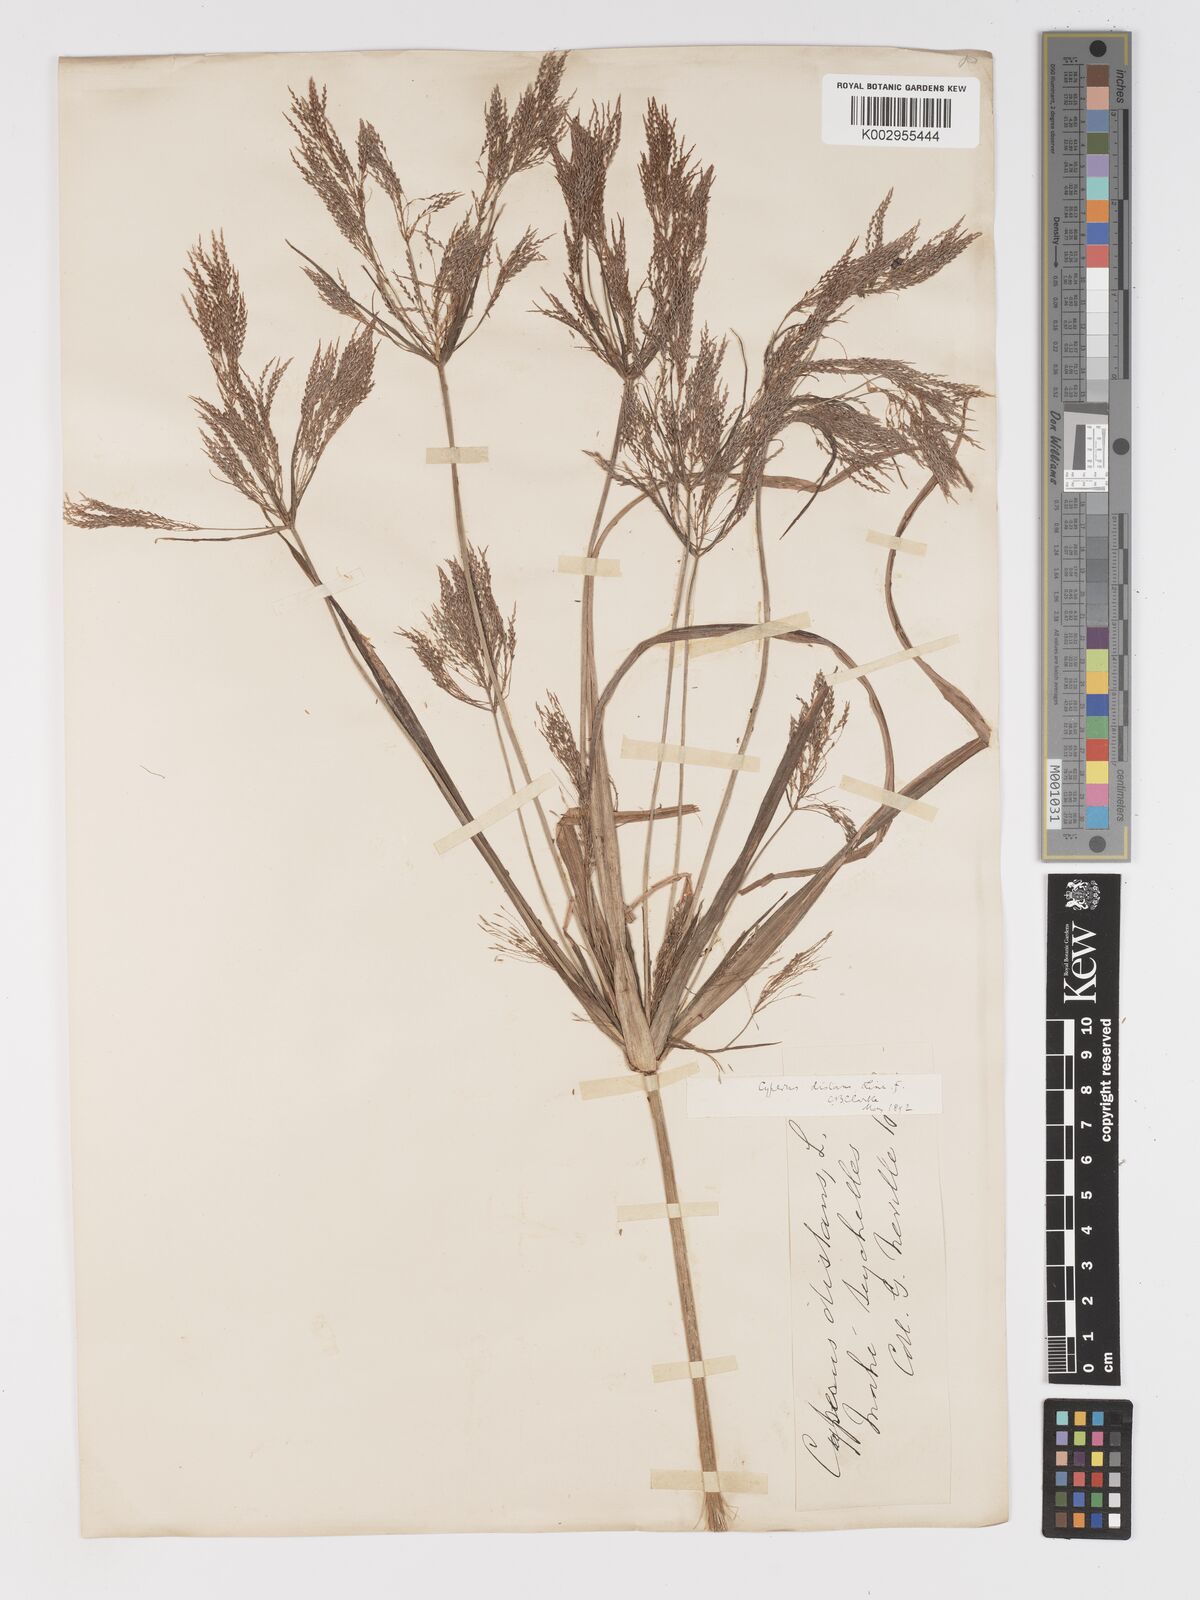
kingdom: Plantae
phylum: Tracheophyta
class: Liliopsida
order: Poales
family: Cyperaceae
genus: Cyperus
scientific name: Cyperus distans
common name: Slender cyperus
